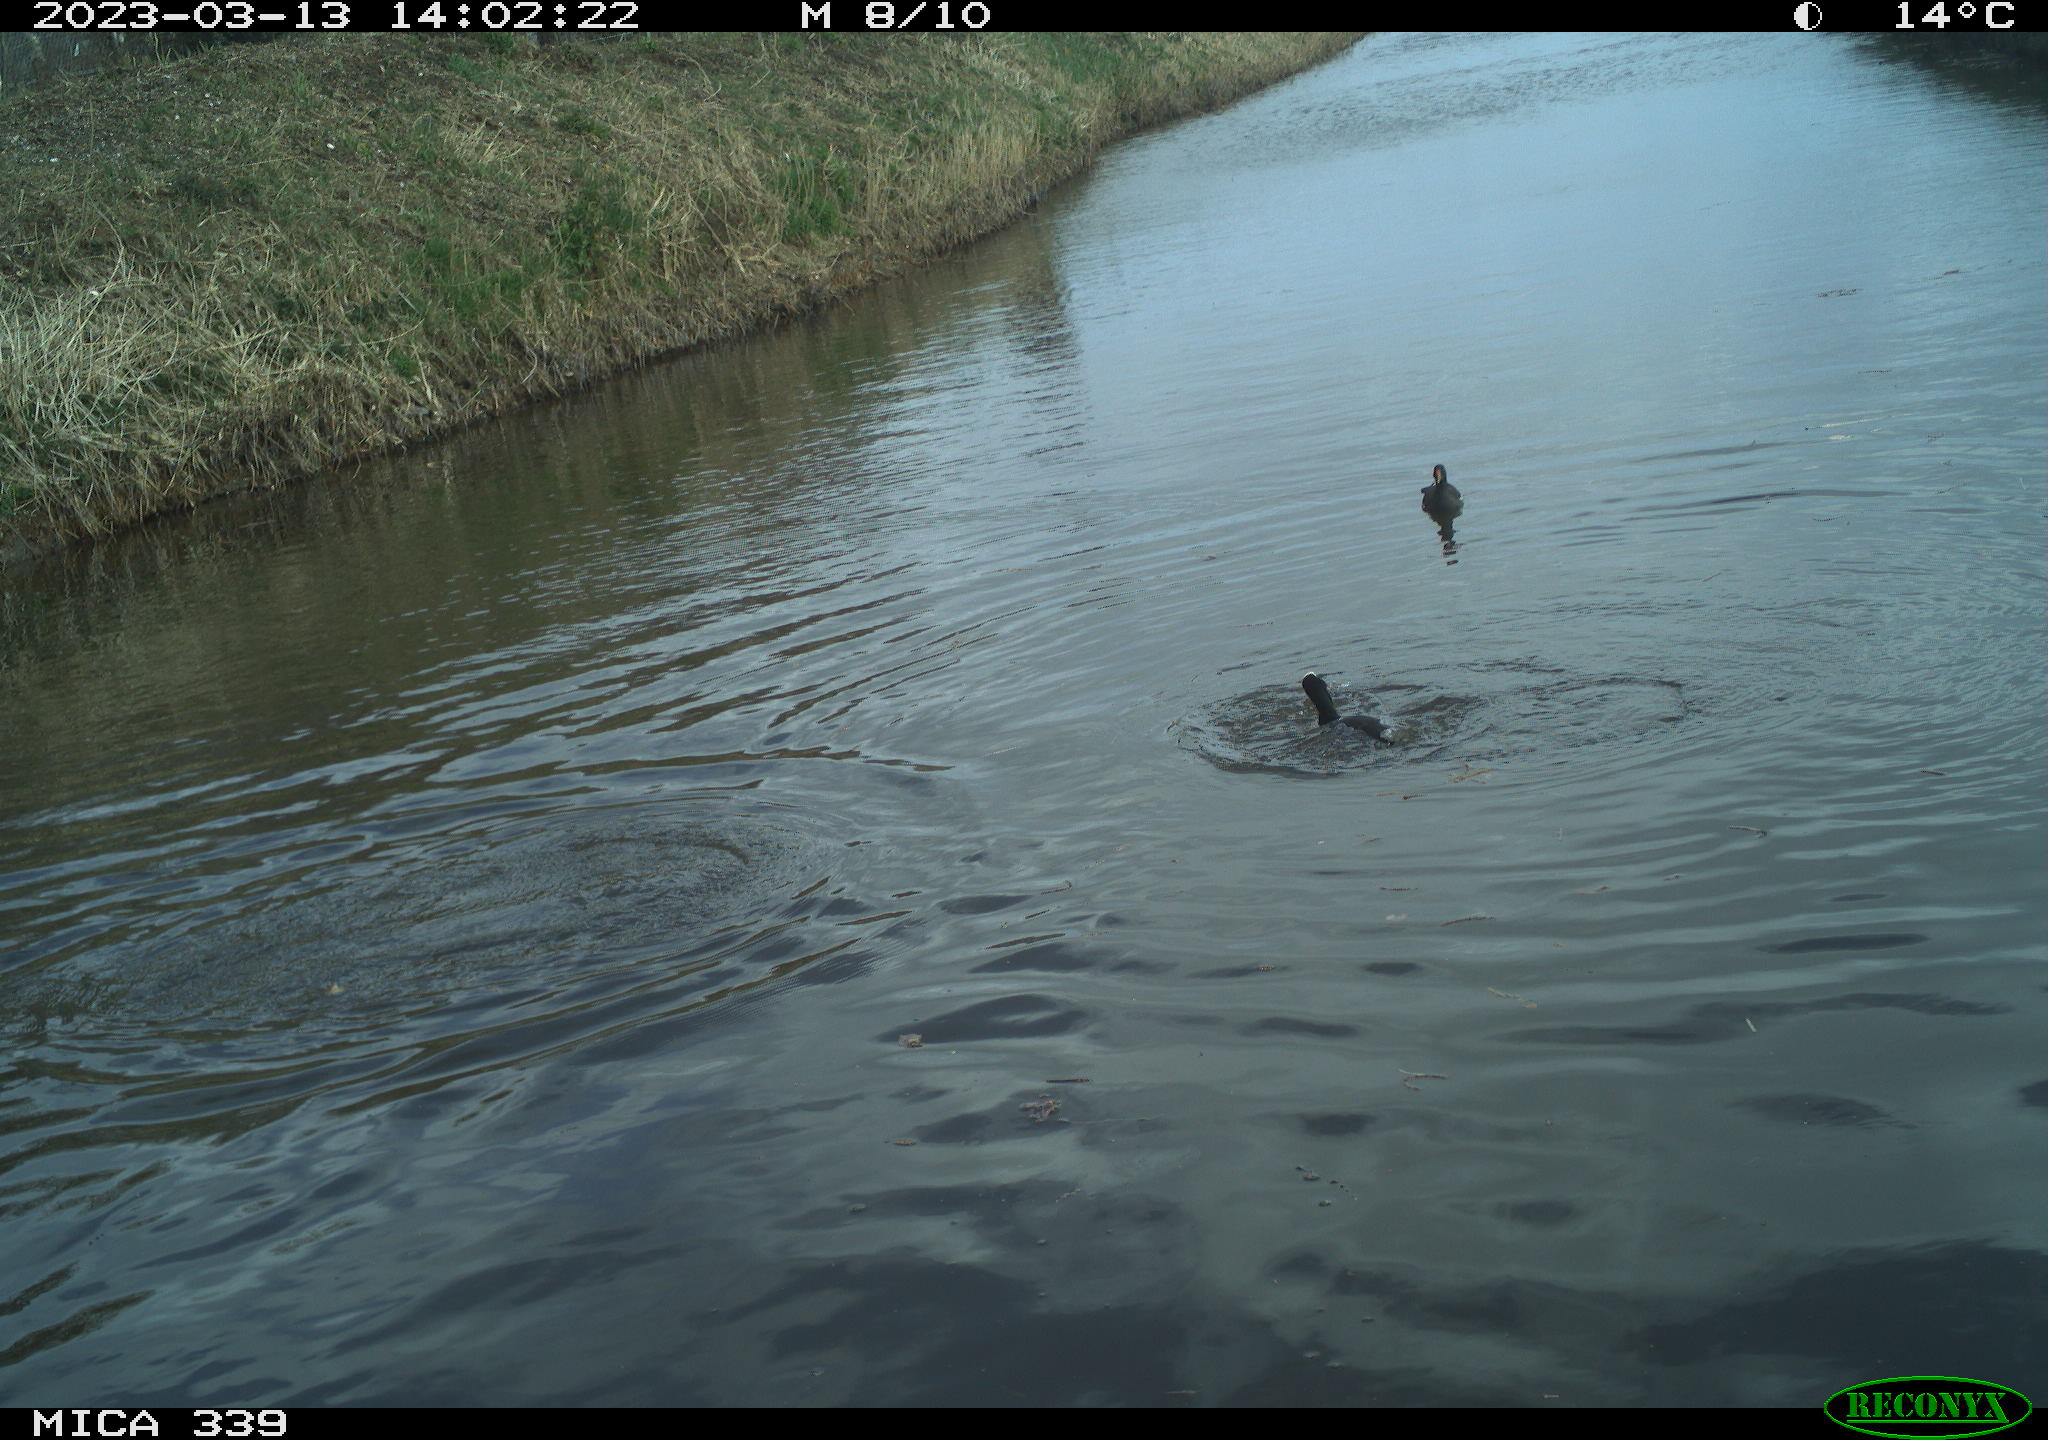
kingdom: Animalia
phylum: Chordata
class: Aves
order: Suliformes
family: Phalacrocoracidae
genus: Phalacrocorax
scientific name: Phalacrocorax carbo
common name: Great cormorant
